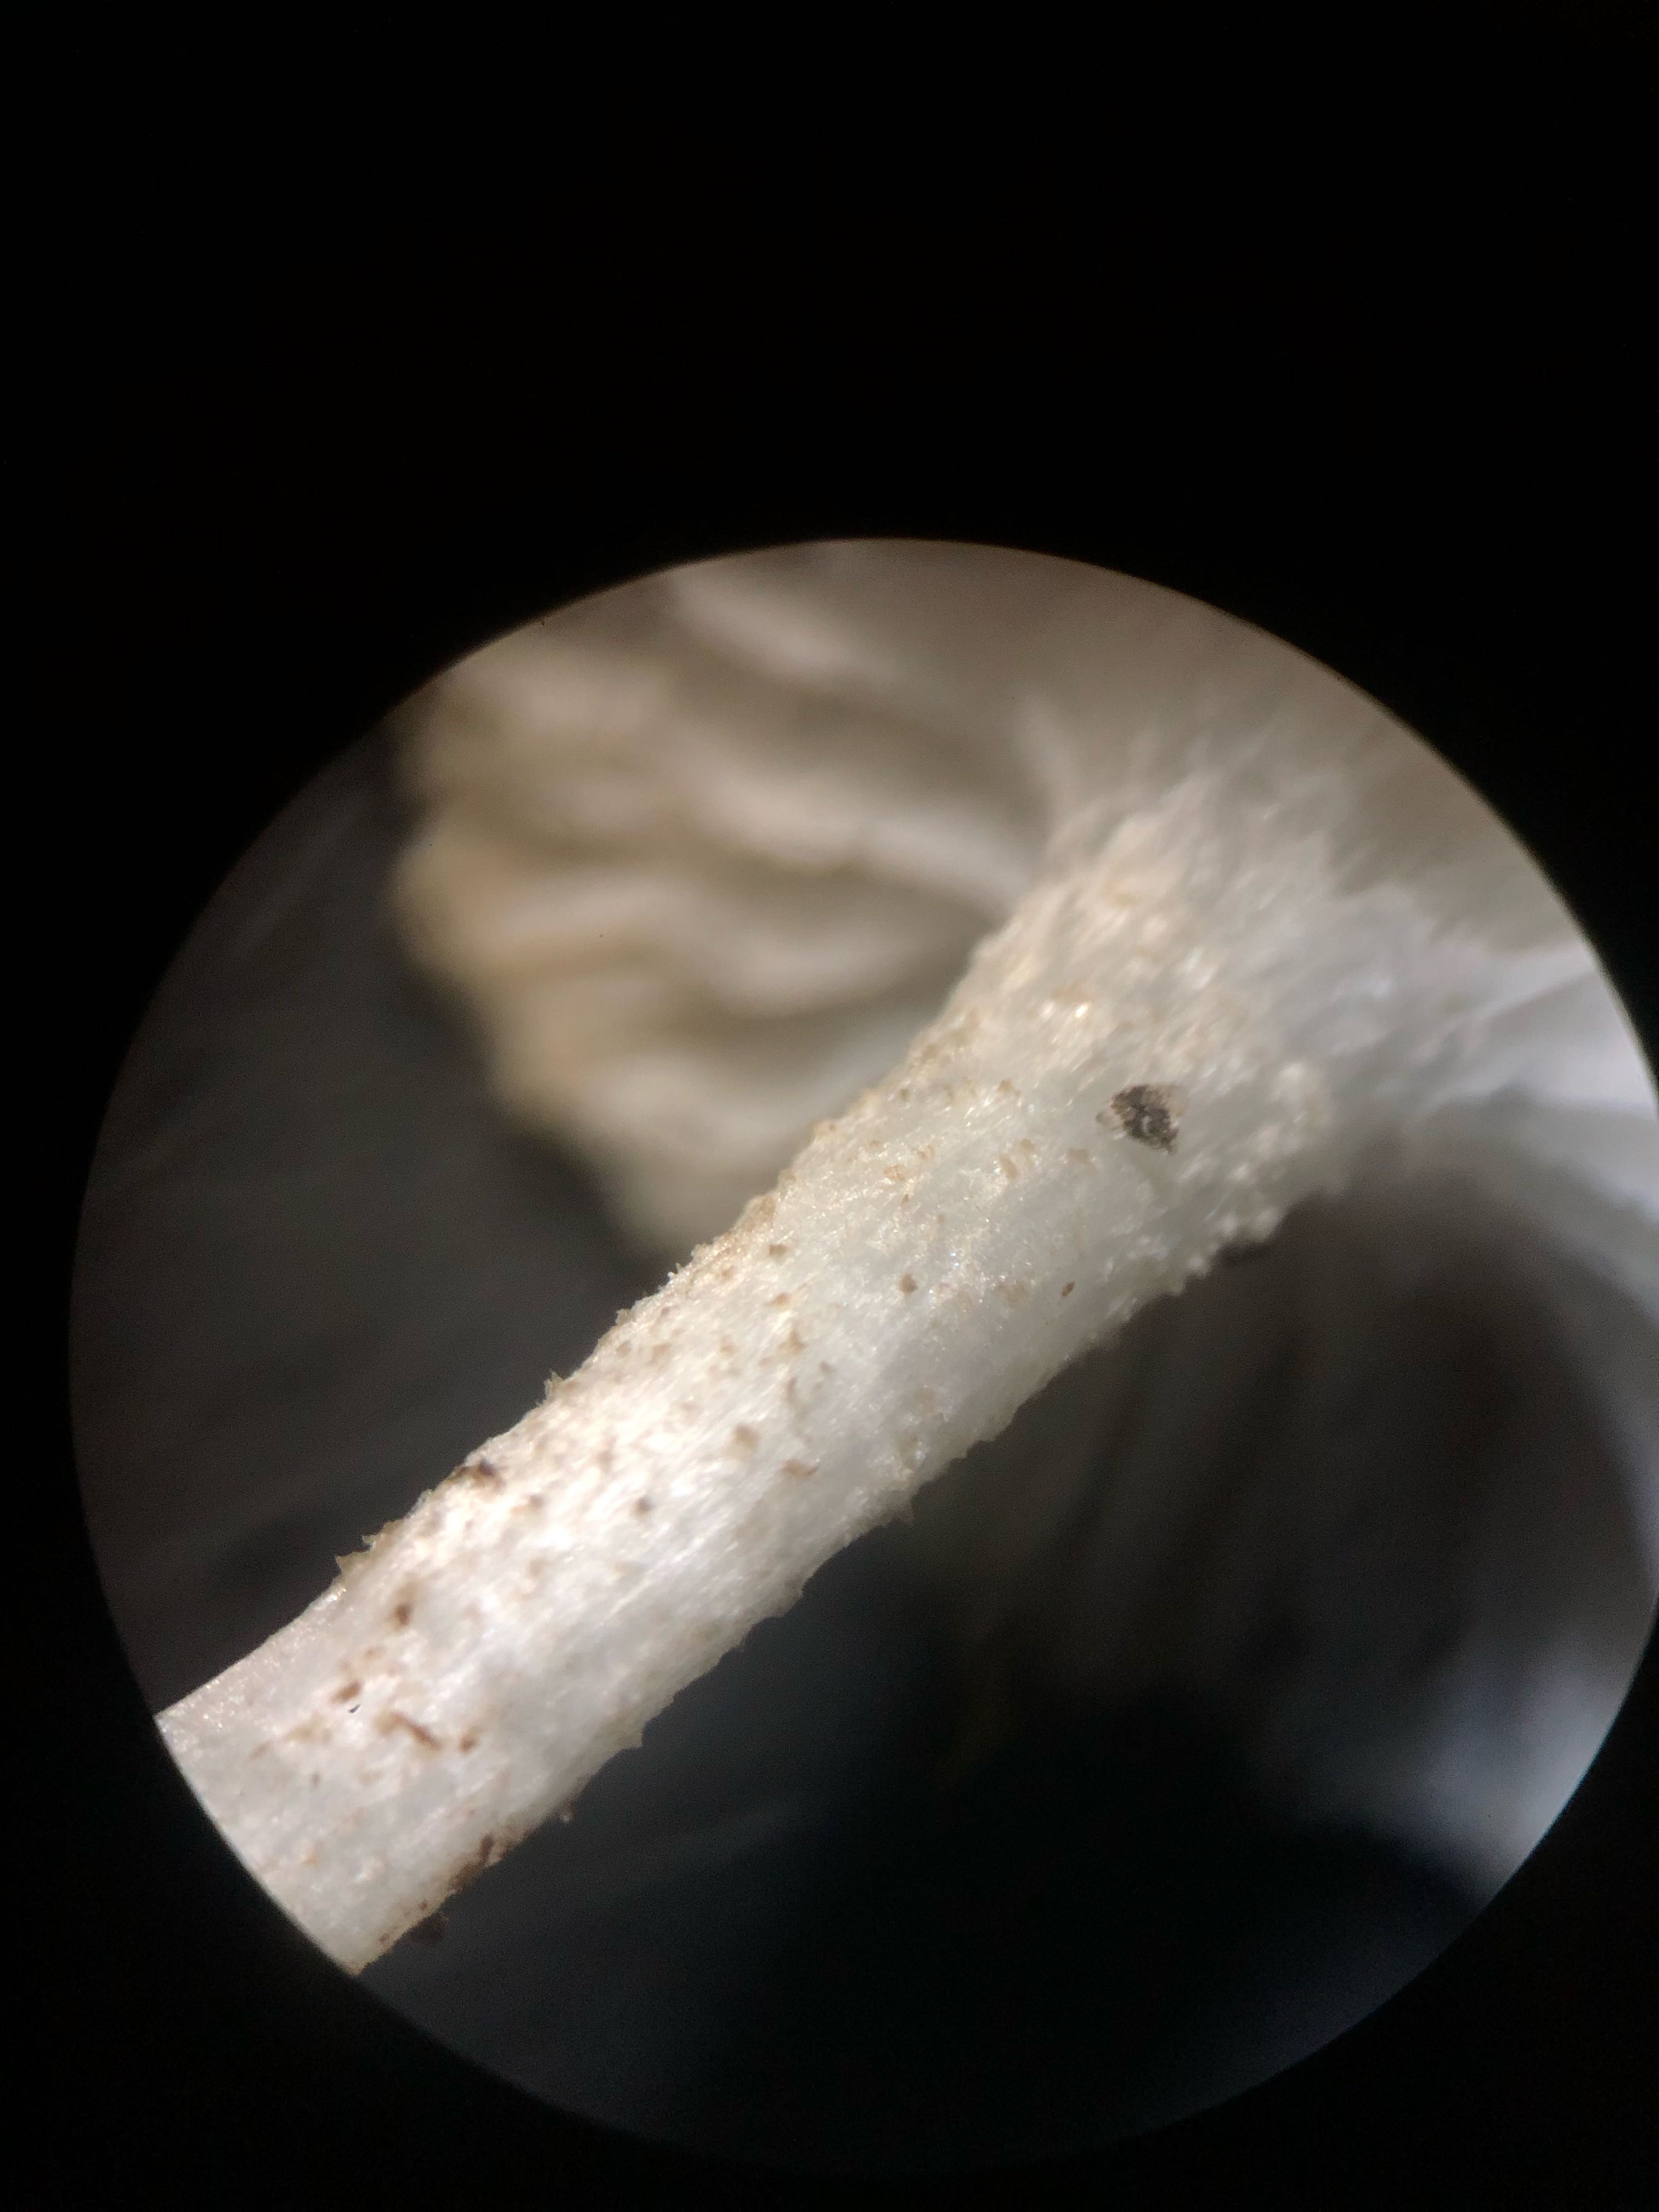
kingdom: Fungi
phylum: Basidiomycota
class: Agaricomycetes
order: Agaricales
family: Hygrophoraceae
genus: Hygrophorus
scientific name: Hygrophorus pustulatus
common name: mørkprikket sneglehat
